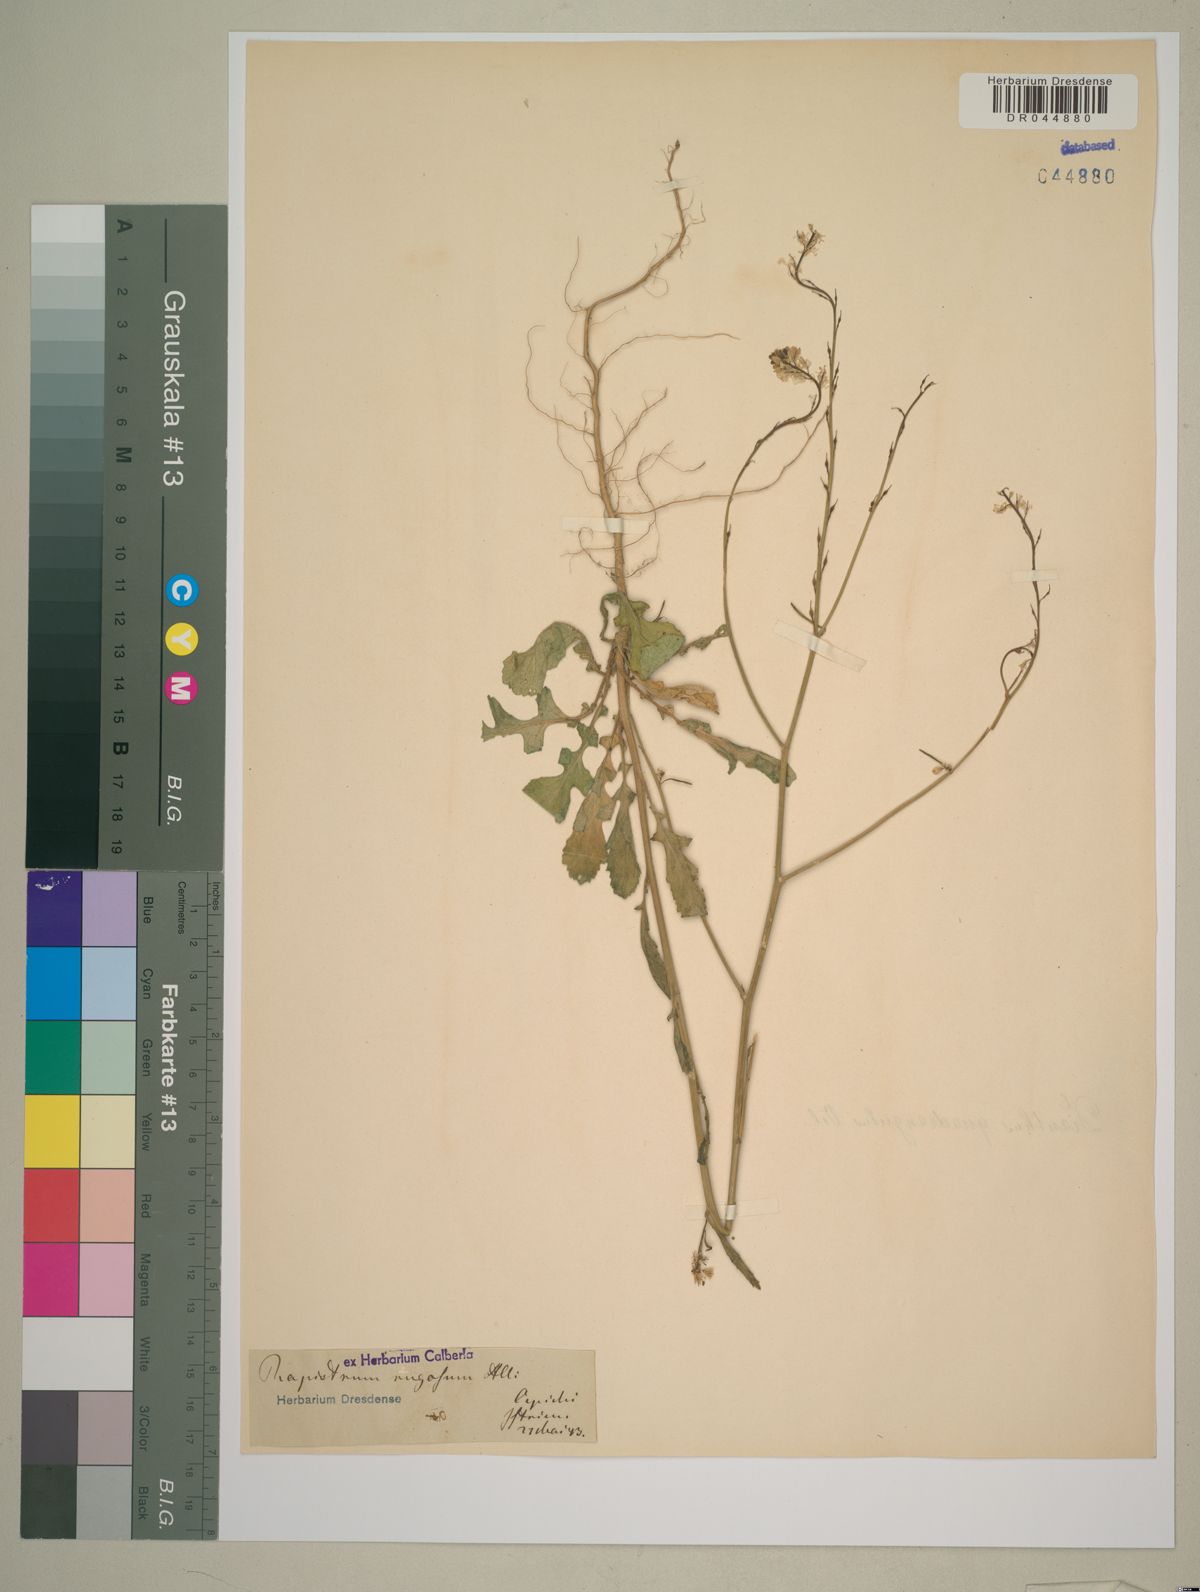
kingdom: Plantae
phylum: Tracheophyta
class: Magnoliopsida
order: Brassicales
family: Brassicaceae
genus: Rapistrum
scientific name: Rapistrum rugosum
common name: Annual bastardcabbage
